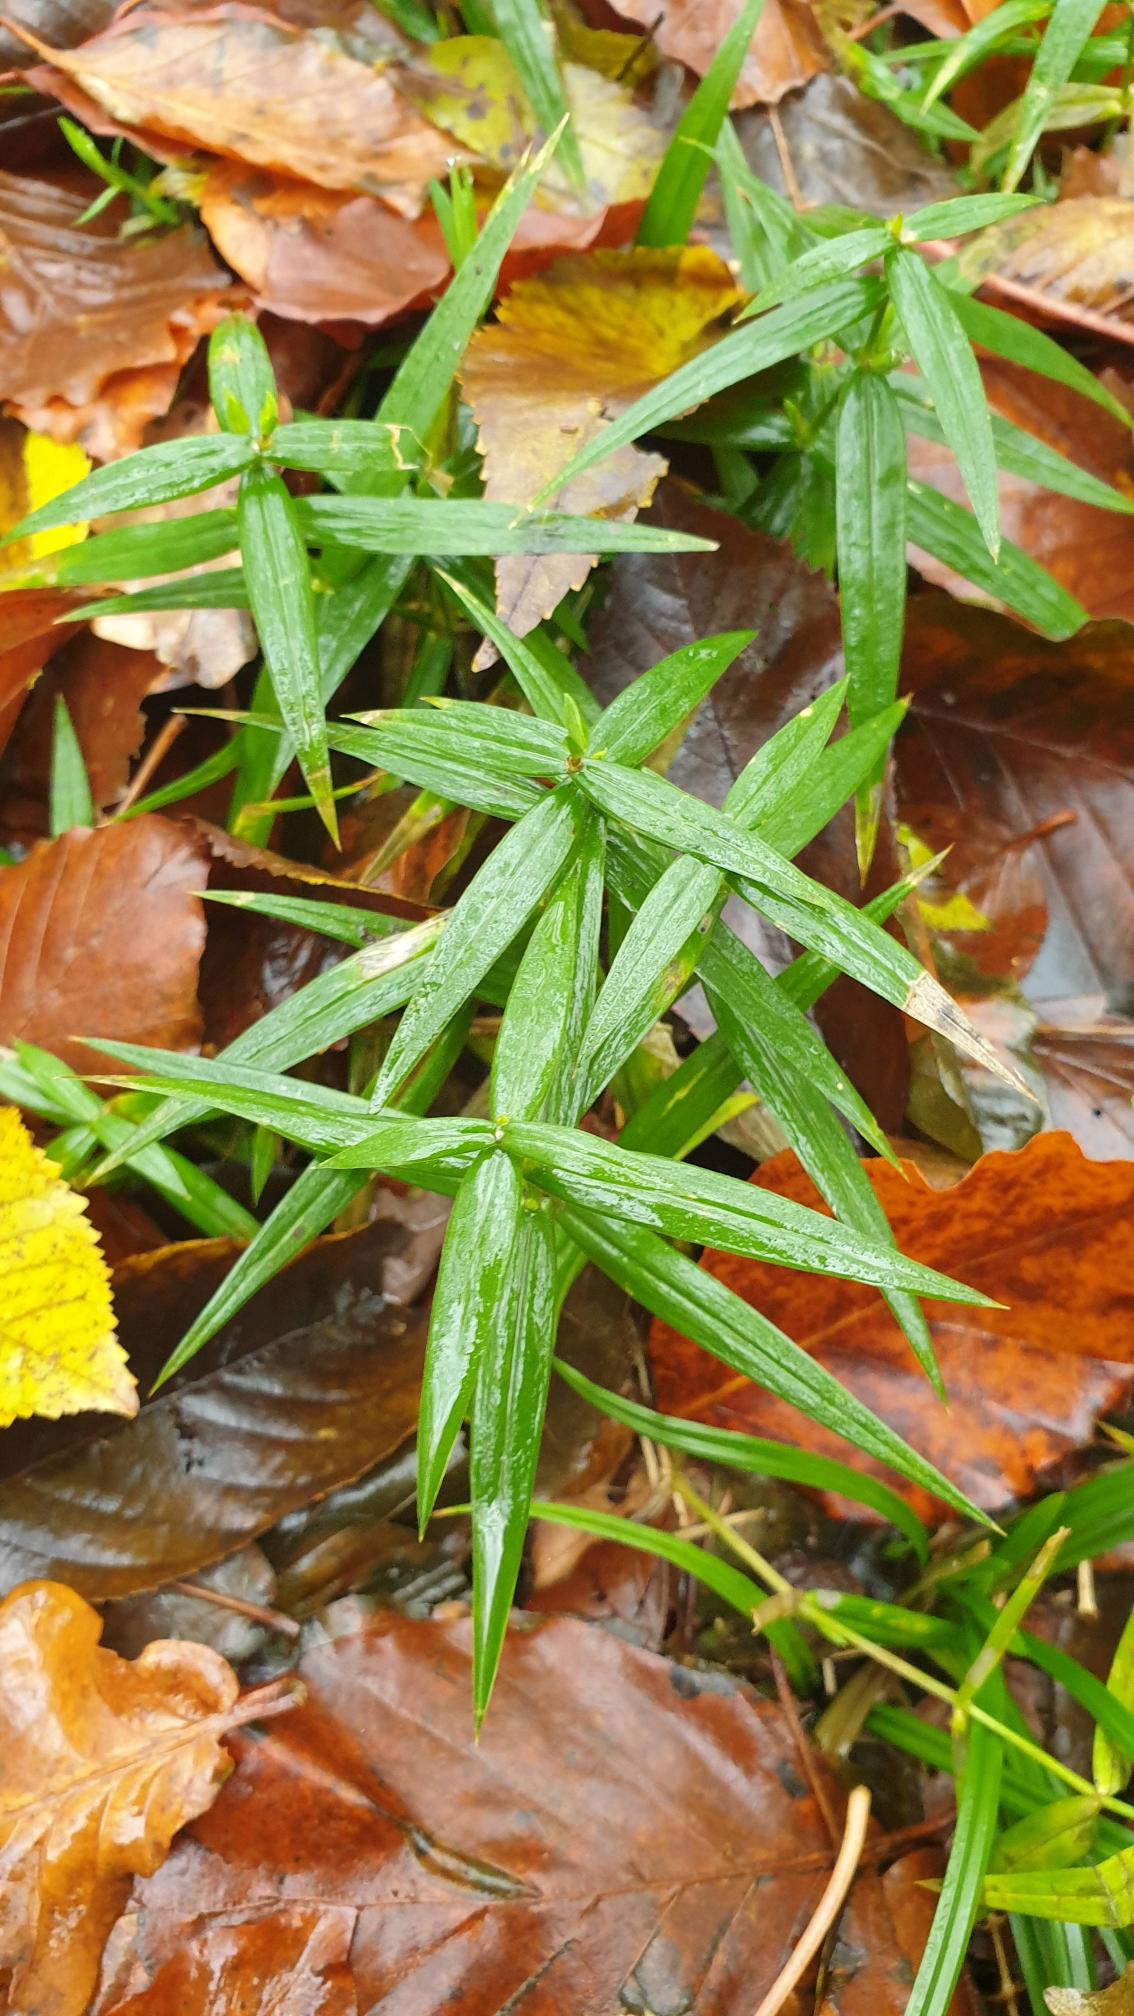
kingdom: Plantae
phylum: Tracheophyta
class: Magnoliopsida
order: Caryophyllales
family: Caryophyllaceae
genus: Rabelera
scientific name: Rabelera holostea
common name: Stor fladstjerne
